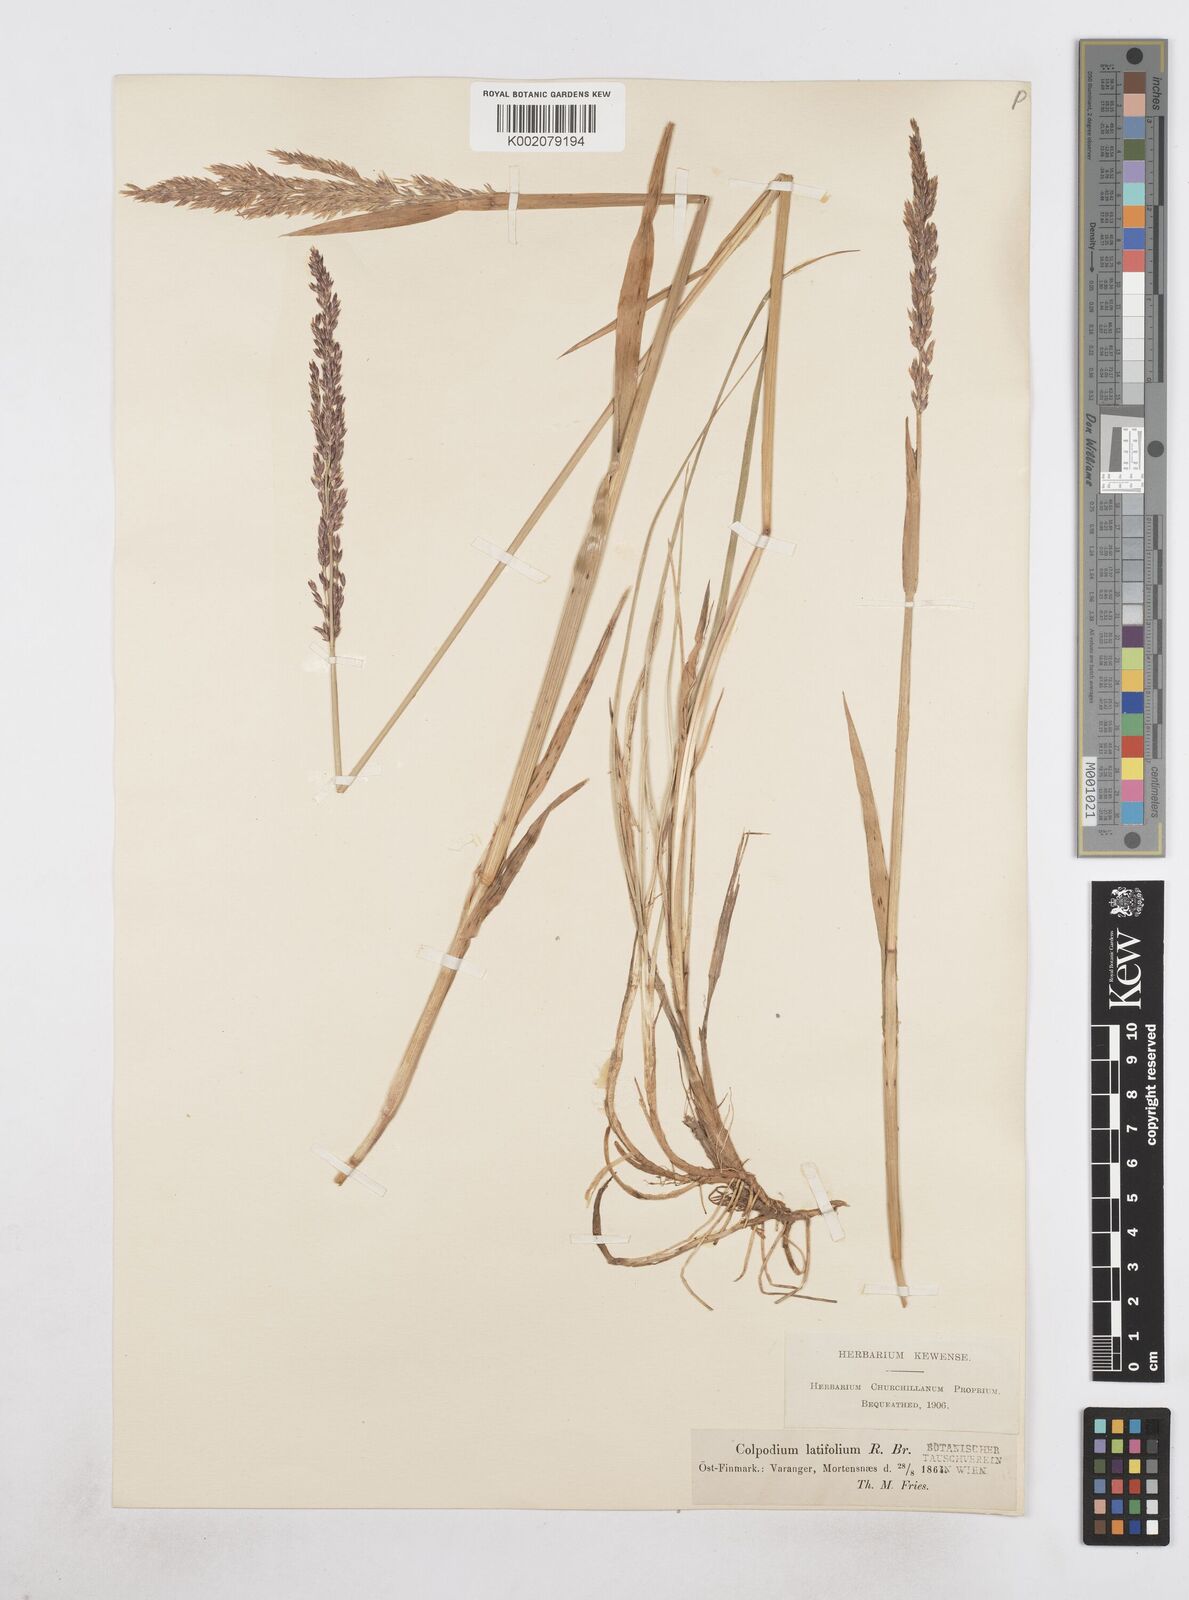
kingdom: Plantae
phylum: Tracheophyta
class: Liliopsida
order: Poales
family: Poaceae
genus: Arctagrostis
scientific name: Arctagrostis latifolia
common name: Arctic grass
